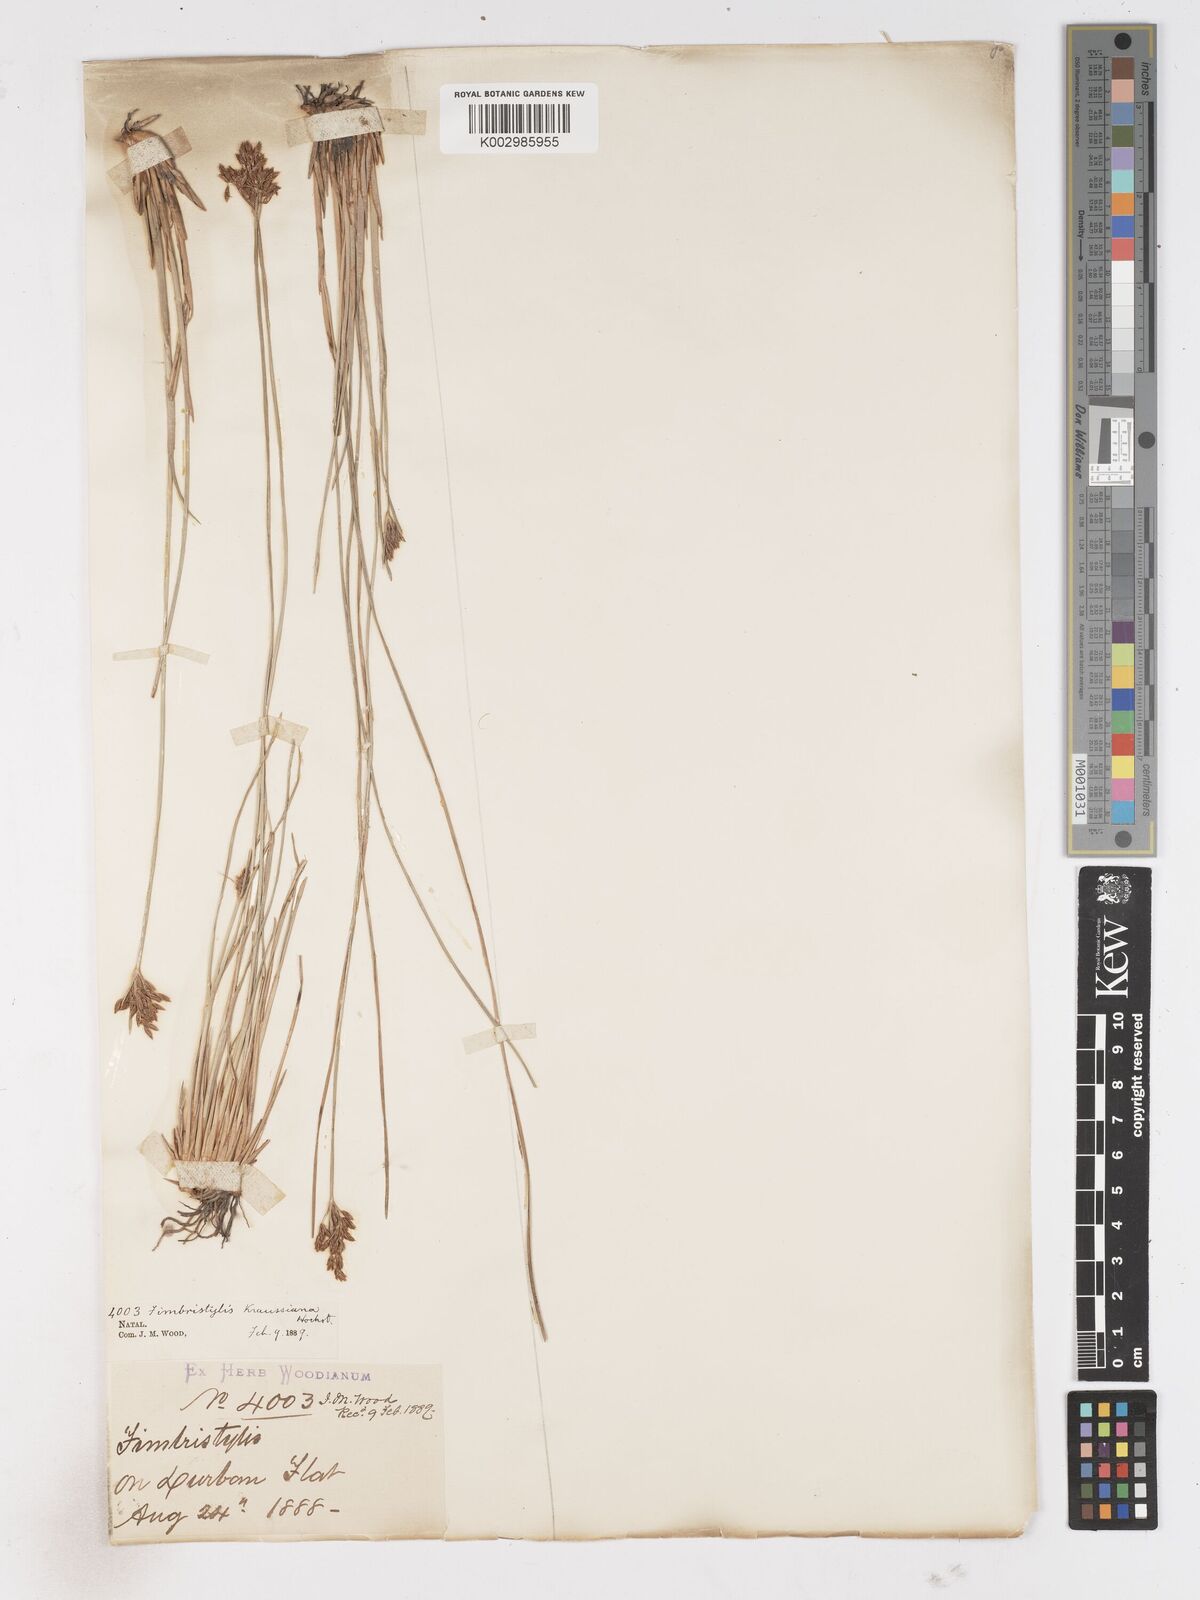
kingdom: Plantae
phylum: Tracheophyta
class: Liliopsida
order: Poales
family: Cyperaceae
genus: Fimbristylis
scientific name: Fimbristylis complanata
